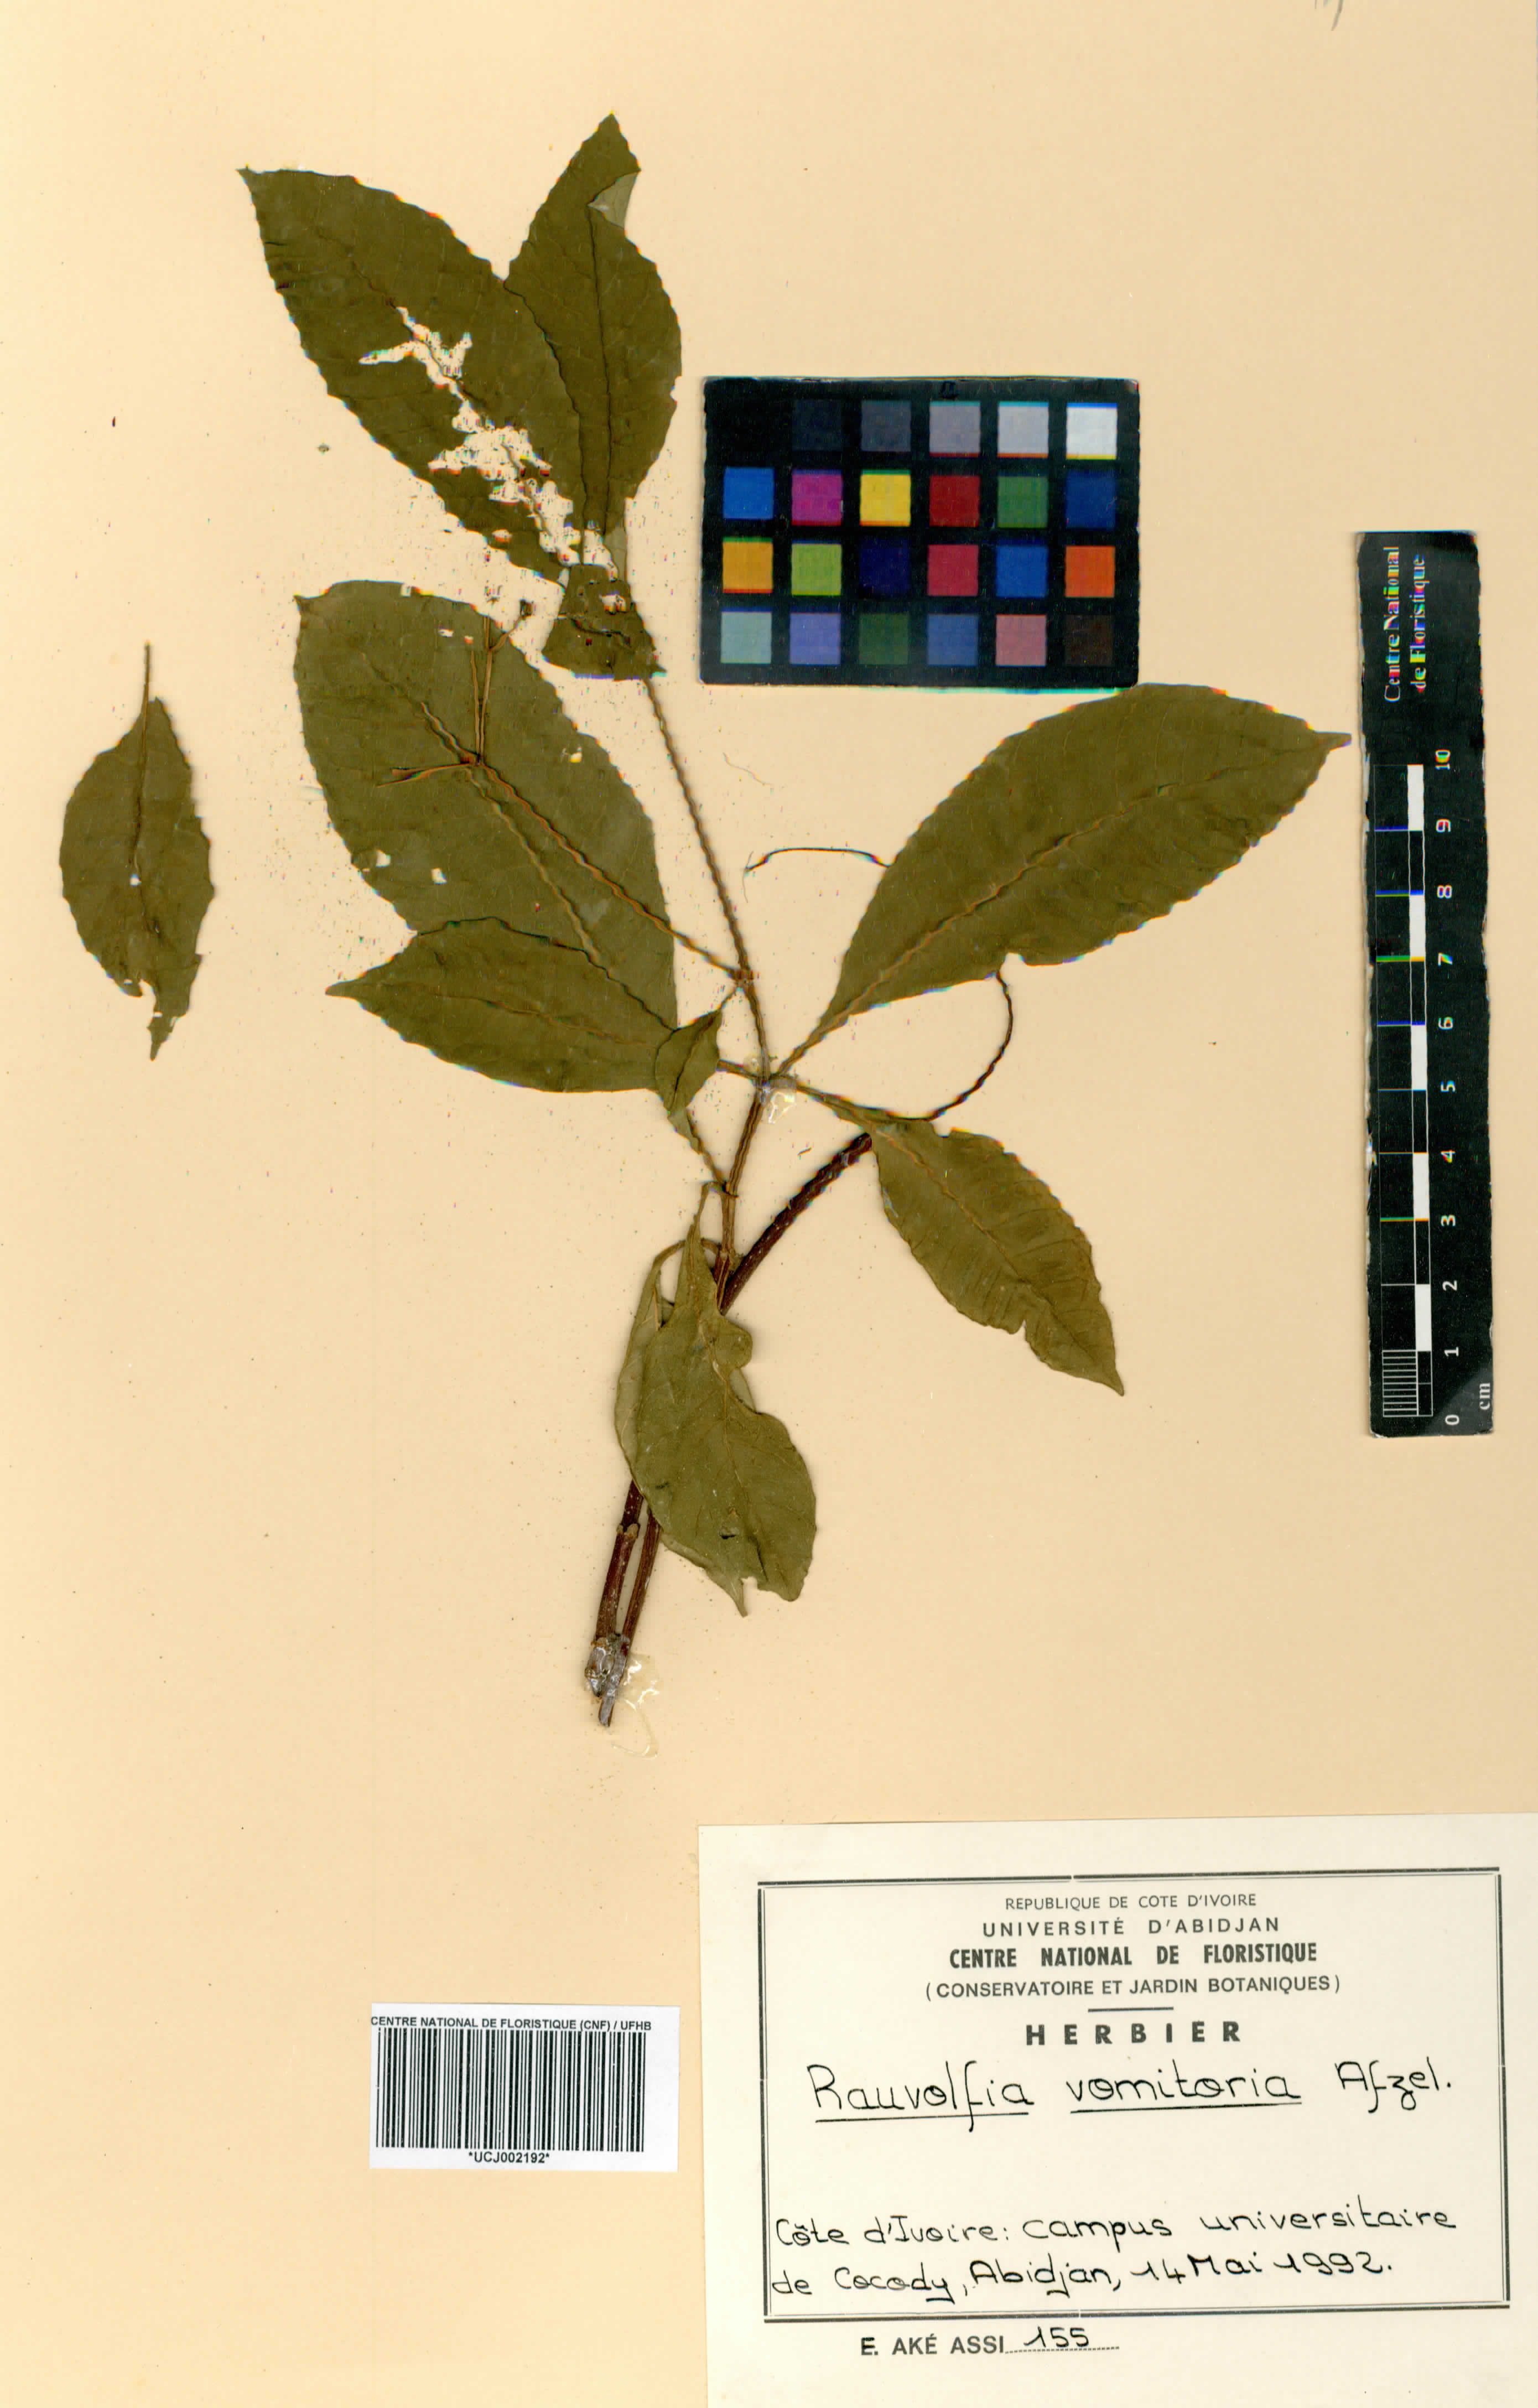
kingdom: Plantae
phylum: Tracheophyta
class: Magnoliopsida
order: Gentianales
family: Apocynaceae
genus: Rauvolfia
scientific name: Rauvolfia vomitoria
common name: Poison devil's-pepper
